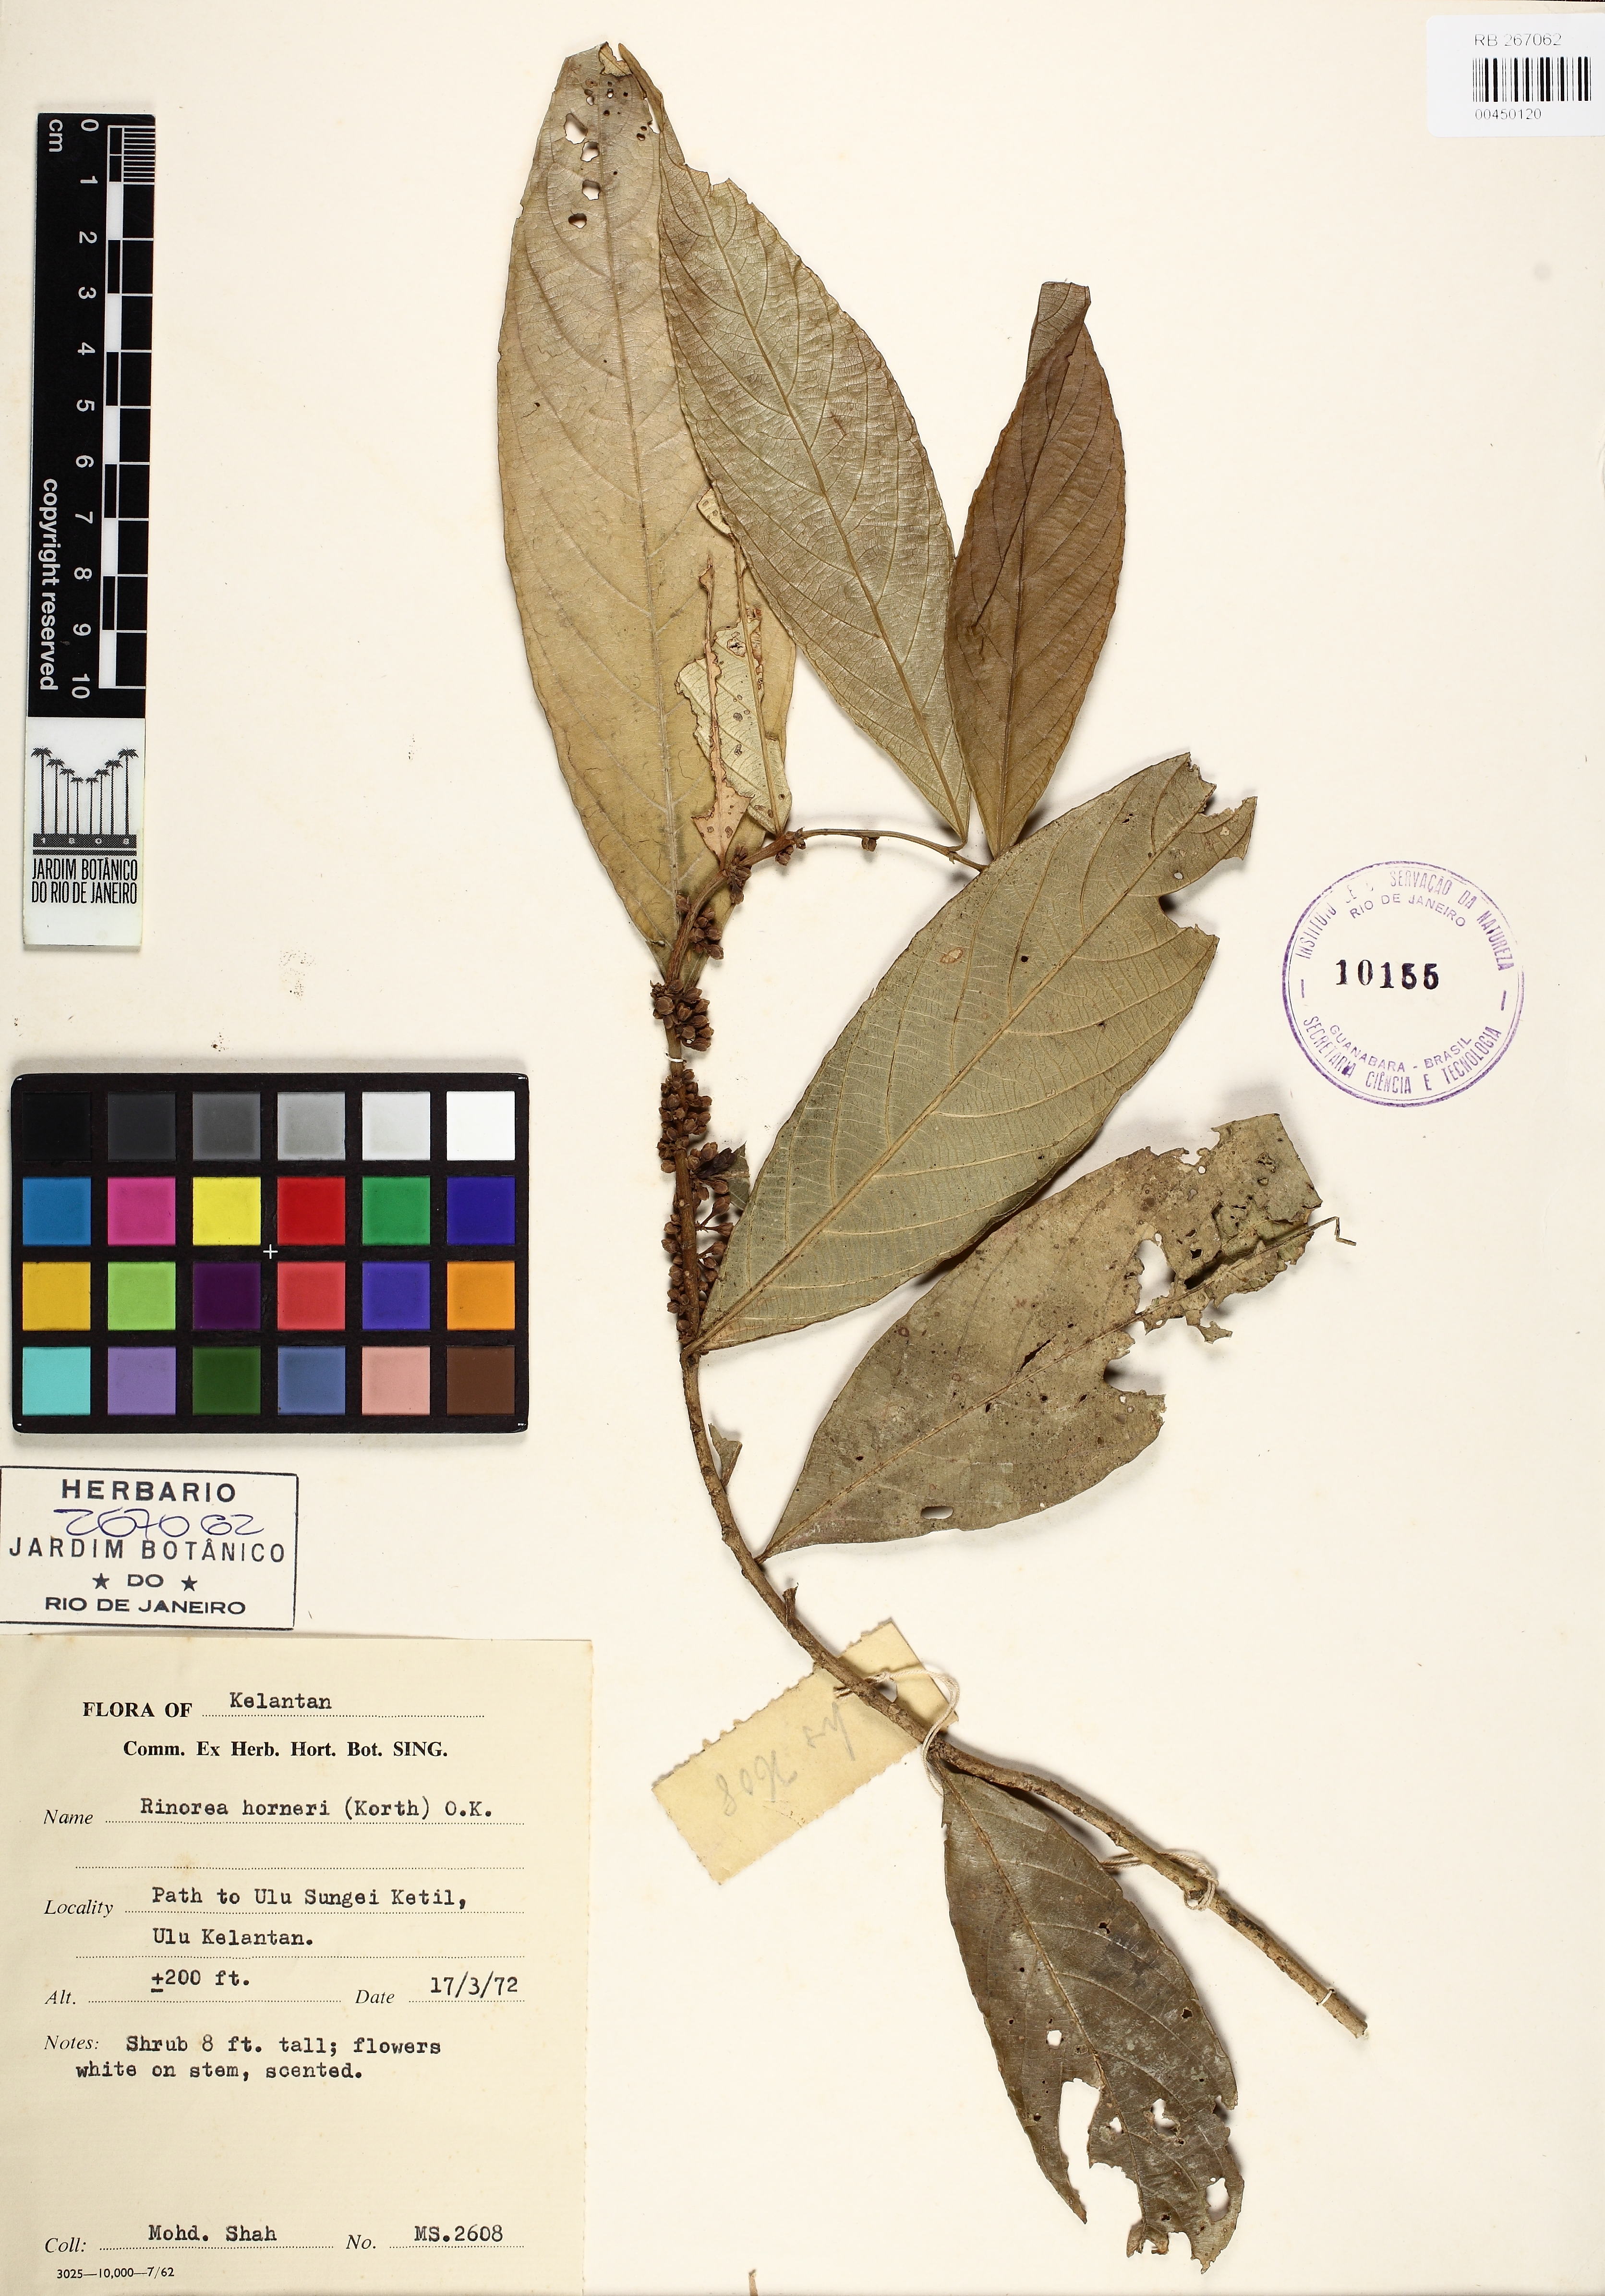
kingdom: Plantae
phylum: Tracheophyta
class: Magnoliopsida
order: Malpighiales
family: Violaceae
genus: Rinorea
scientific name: Rinorea horneri
